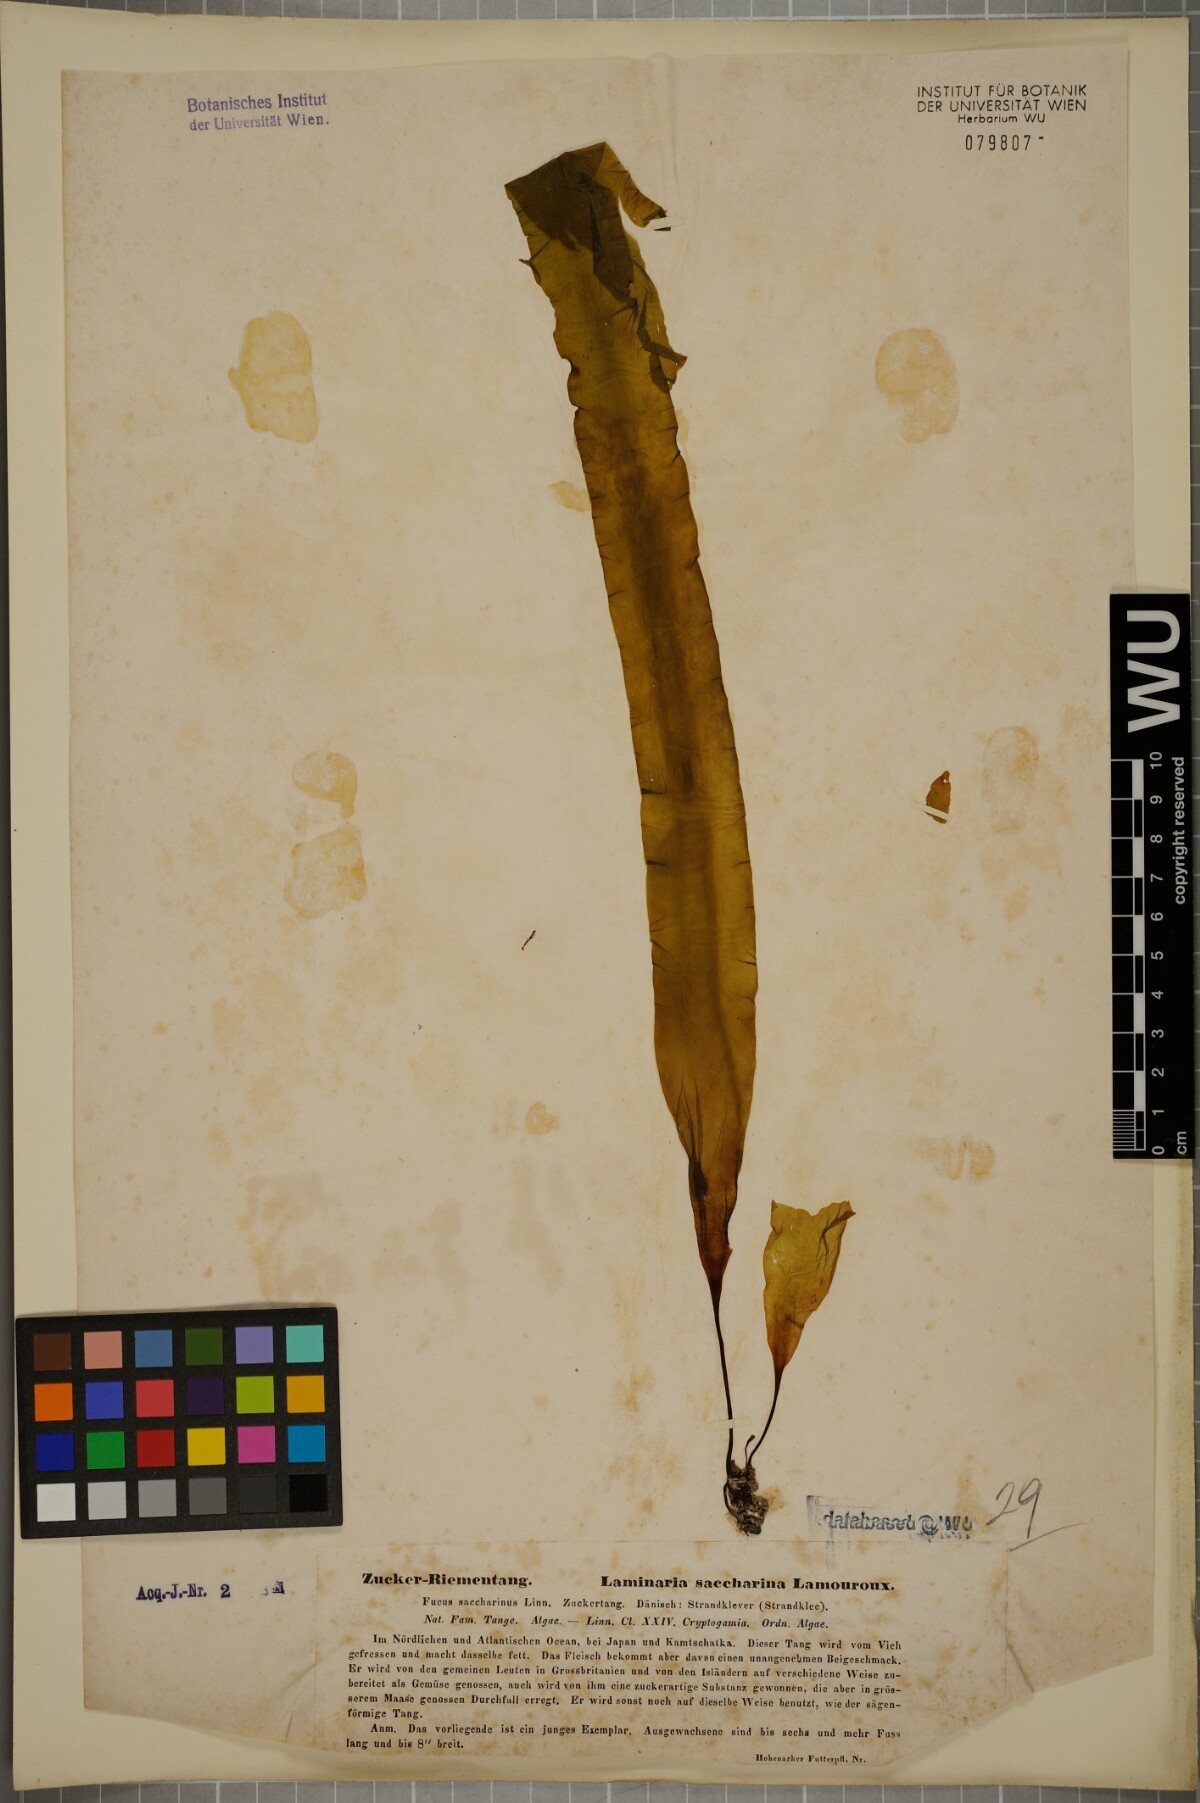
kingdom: Chromista
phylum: Ochrophyta
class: Phaeophyceae
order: Laminariales
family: Laminariaceae
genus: Saccharina
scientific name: Saccharina latissima
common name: Poor man's weather glass
